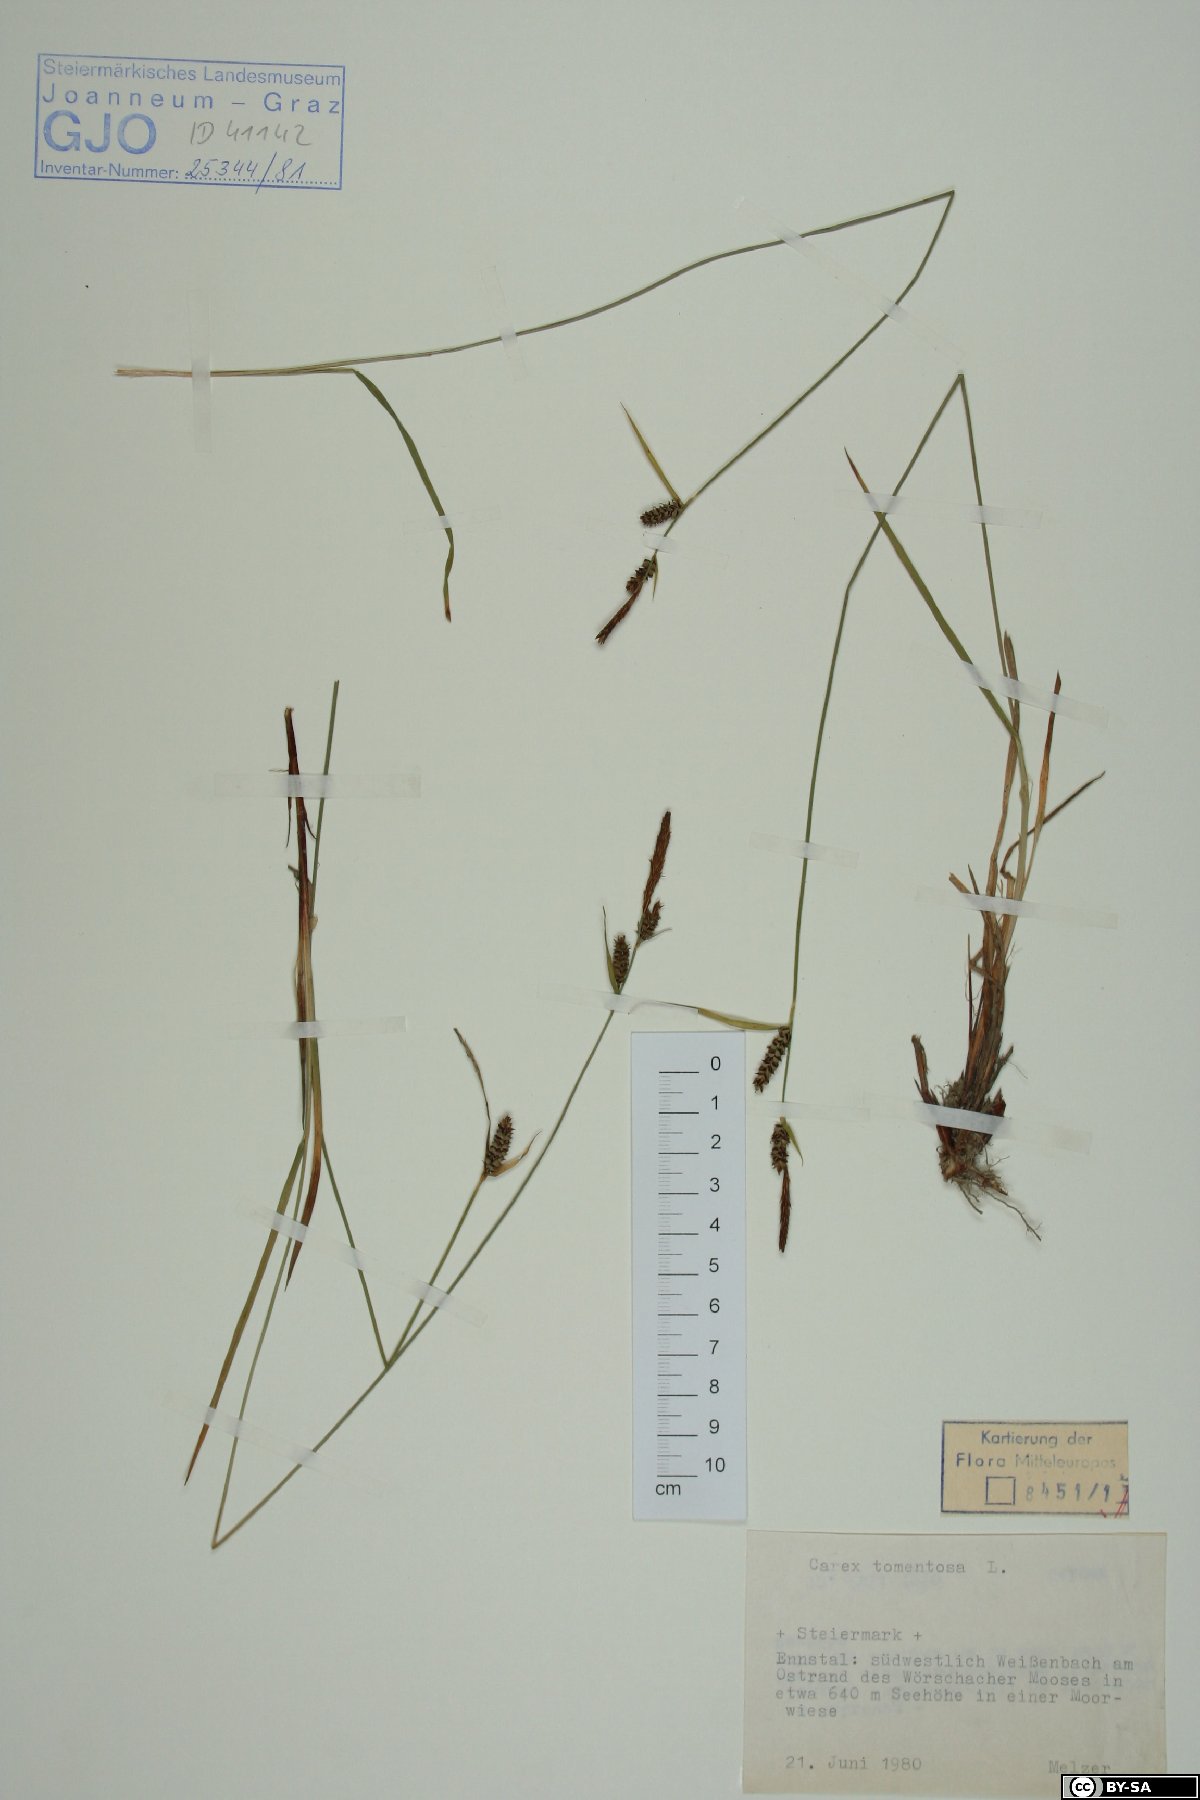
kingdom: Plantae
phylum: Tracheophyta
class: Liliopsida
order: Poales
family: Cyperaceae
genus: Carex
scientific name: Carex tomentosa
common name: Downy-fruited sedge
